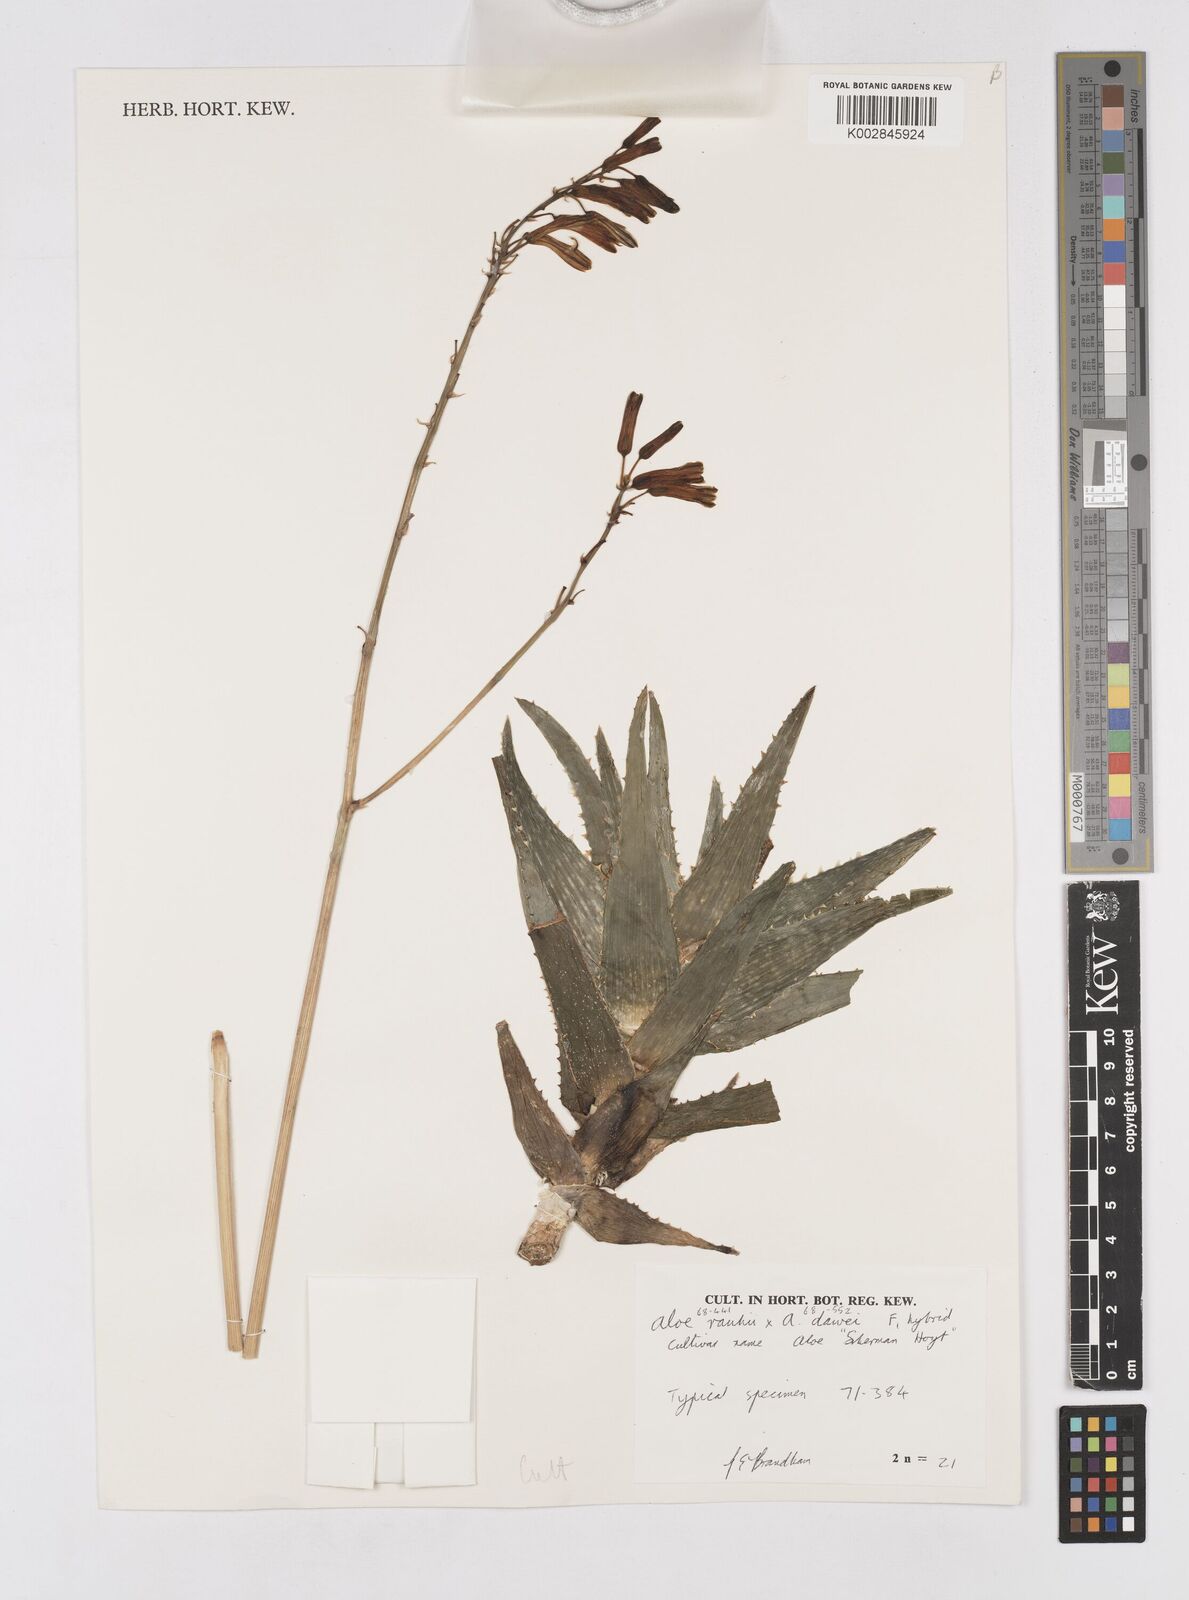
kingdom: Plantae
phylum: Tracheophyta
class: Liliopsida
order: Asparagales
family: Asphodelaceae
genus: Aloe
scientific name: Aloe rauhii
